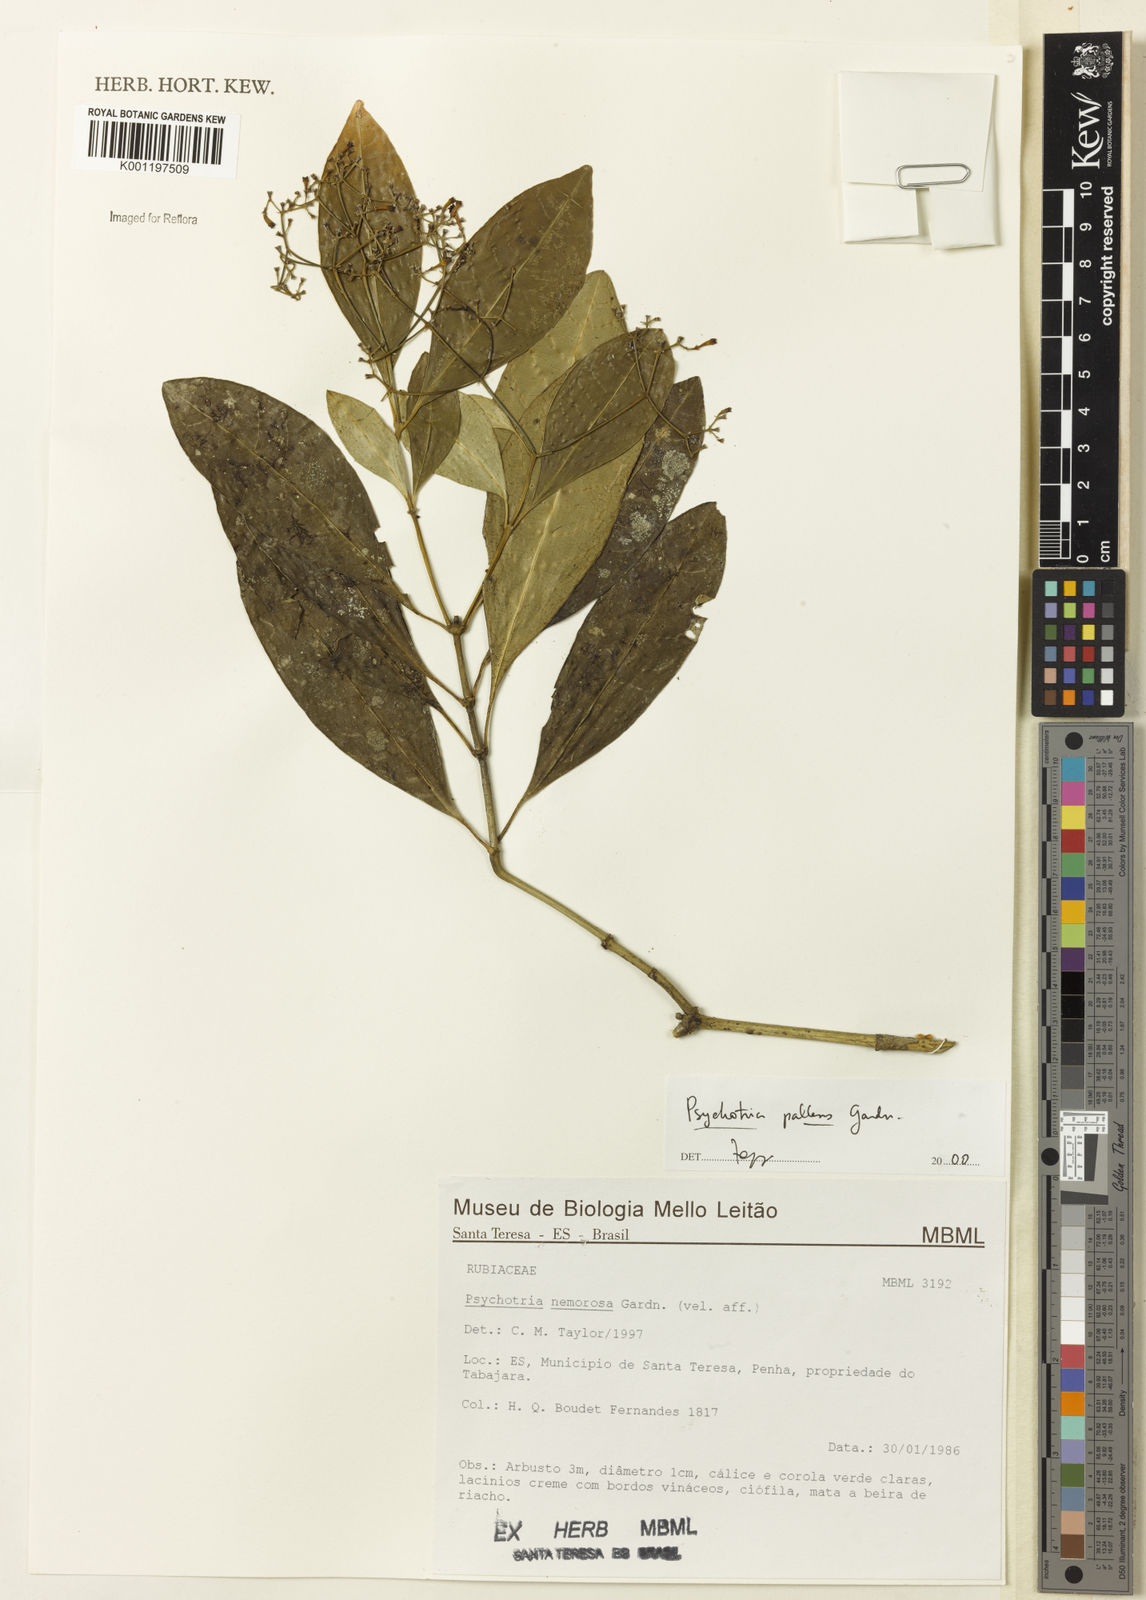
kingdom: Plantae
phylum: Tracheophyta
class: Magnoliopsida
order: Gentianales
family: Rubiaceae
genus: Psychotria
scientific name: Psychotria pallens
